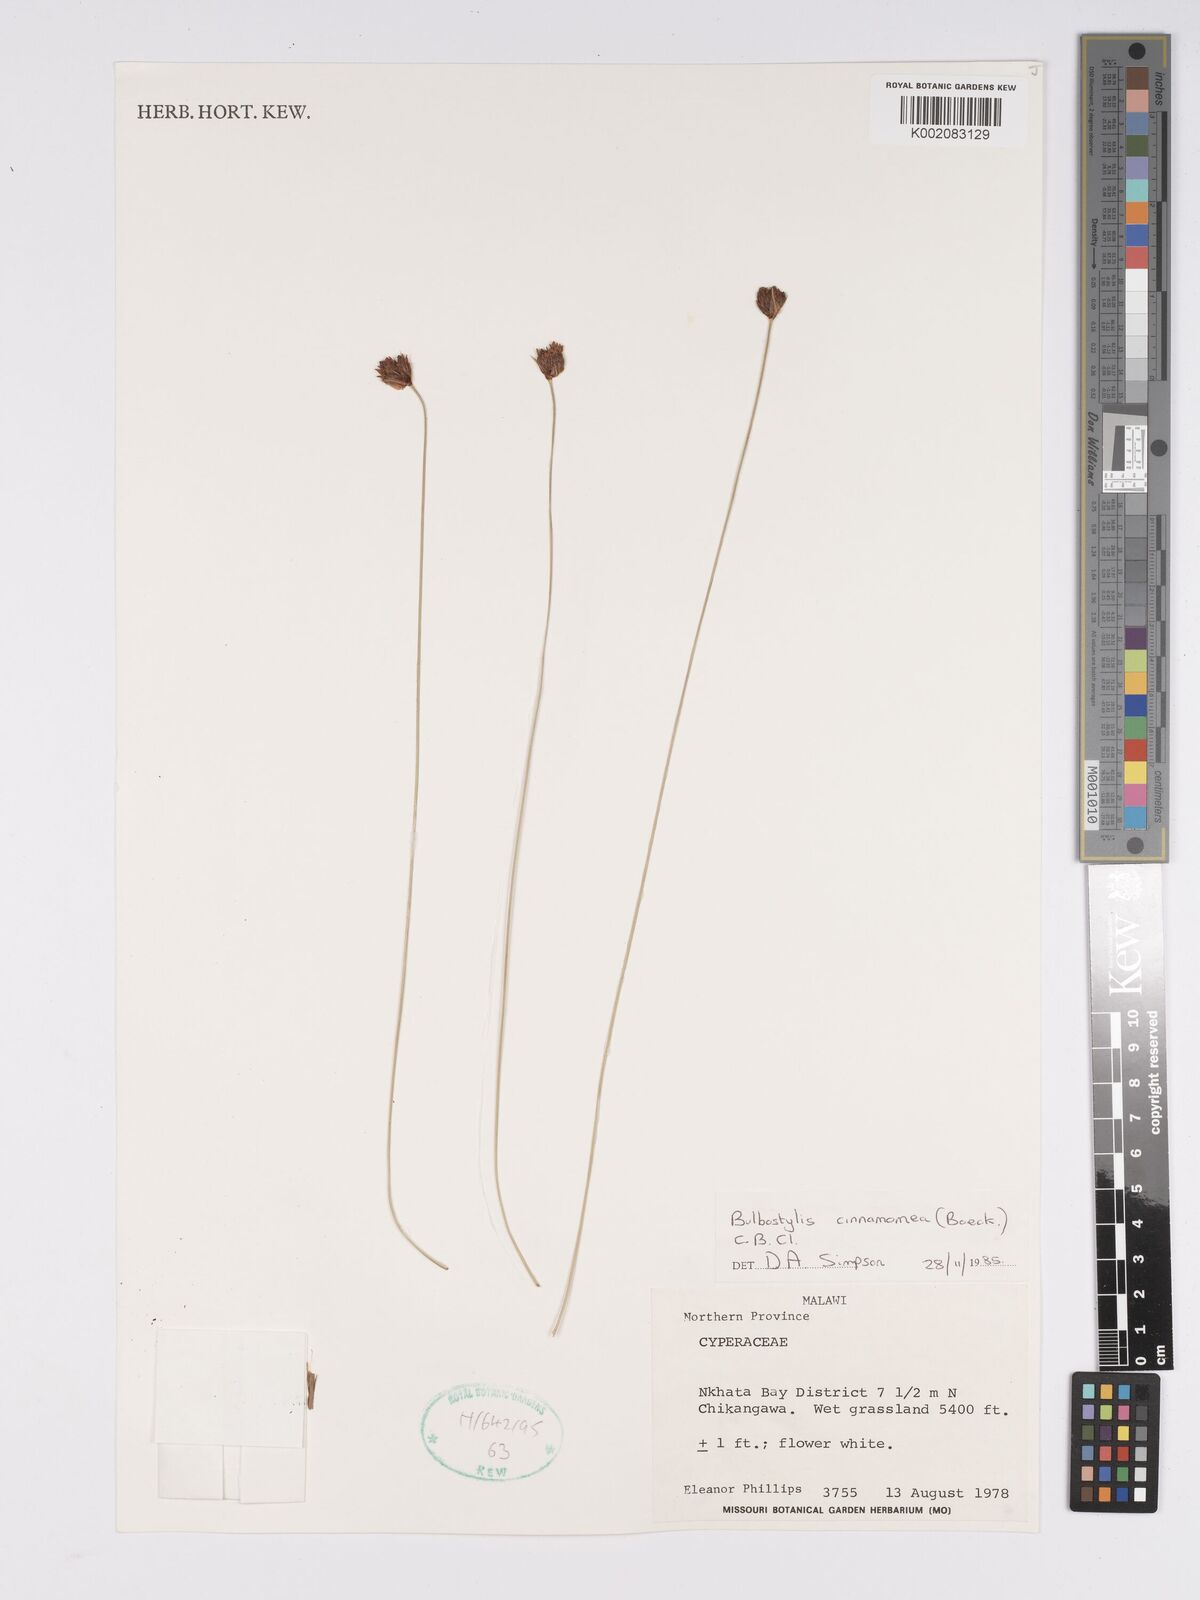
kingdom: Plantae
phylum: Tracheophyta
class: Liliopsida
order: Poales
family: Cyperaceae
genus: Bulbostylis
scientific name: Bulbostylis schoenoides
